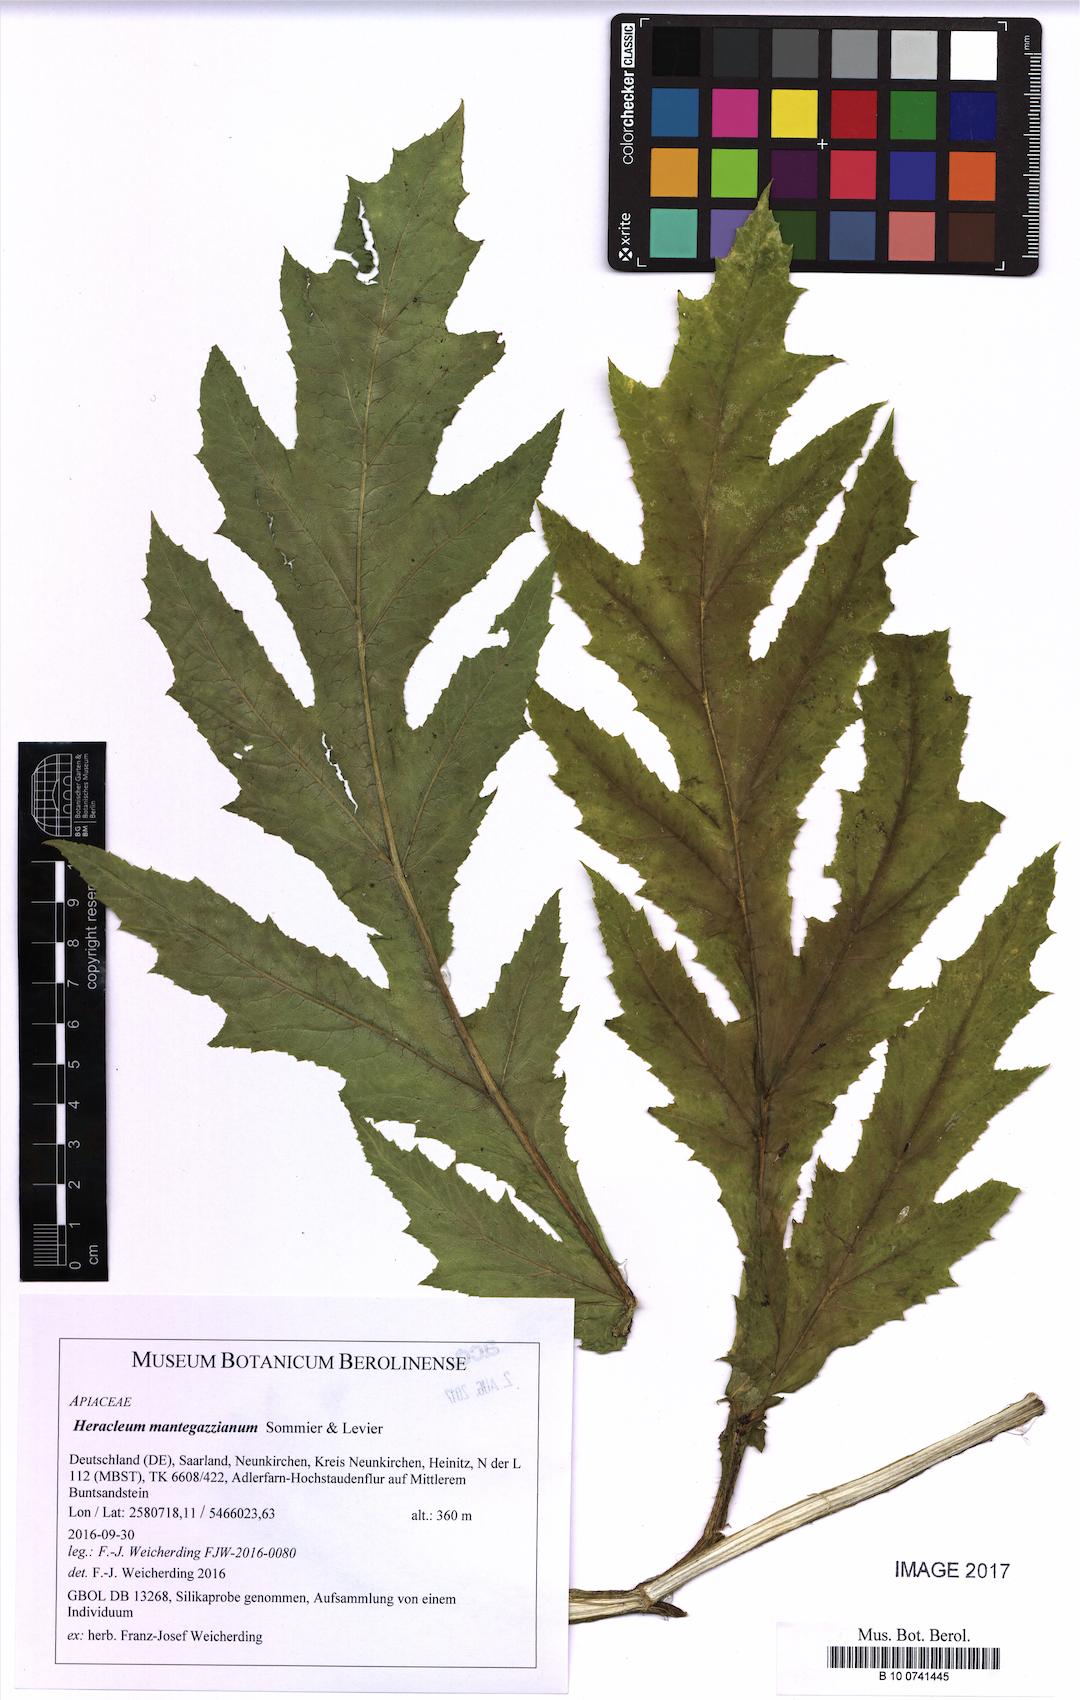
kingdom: Plantae
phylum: Tracheophyta
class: Magnoliopsida
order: Apiales
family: Apiaceae
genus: Heracleum
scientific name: Heracleum mantegazzianum
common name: Giant hogweed
